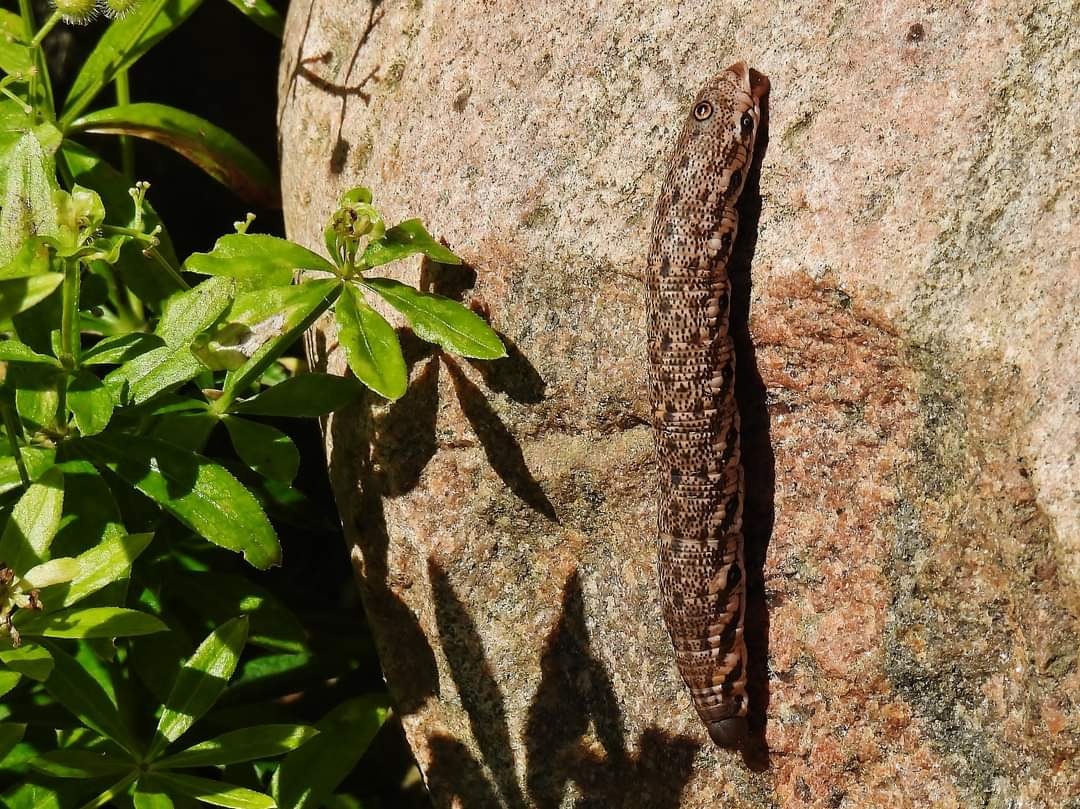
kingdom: Animalia
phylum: Arthropoda
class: Insecta
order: Lepidoptera
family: Sphingidae
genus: Proserpinus
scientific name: Proserpinus proserpina
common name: Natlyssværmer
